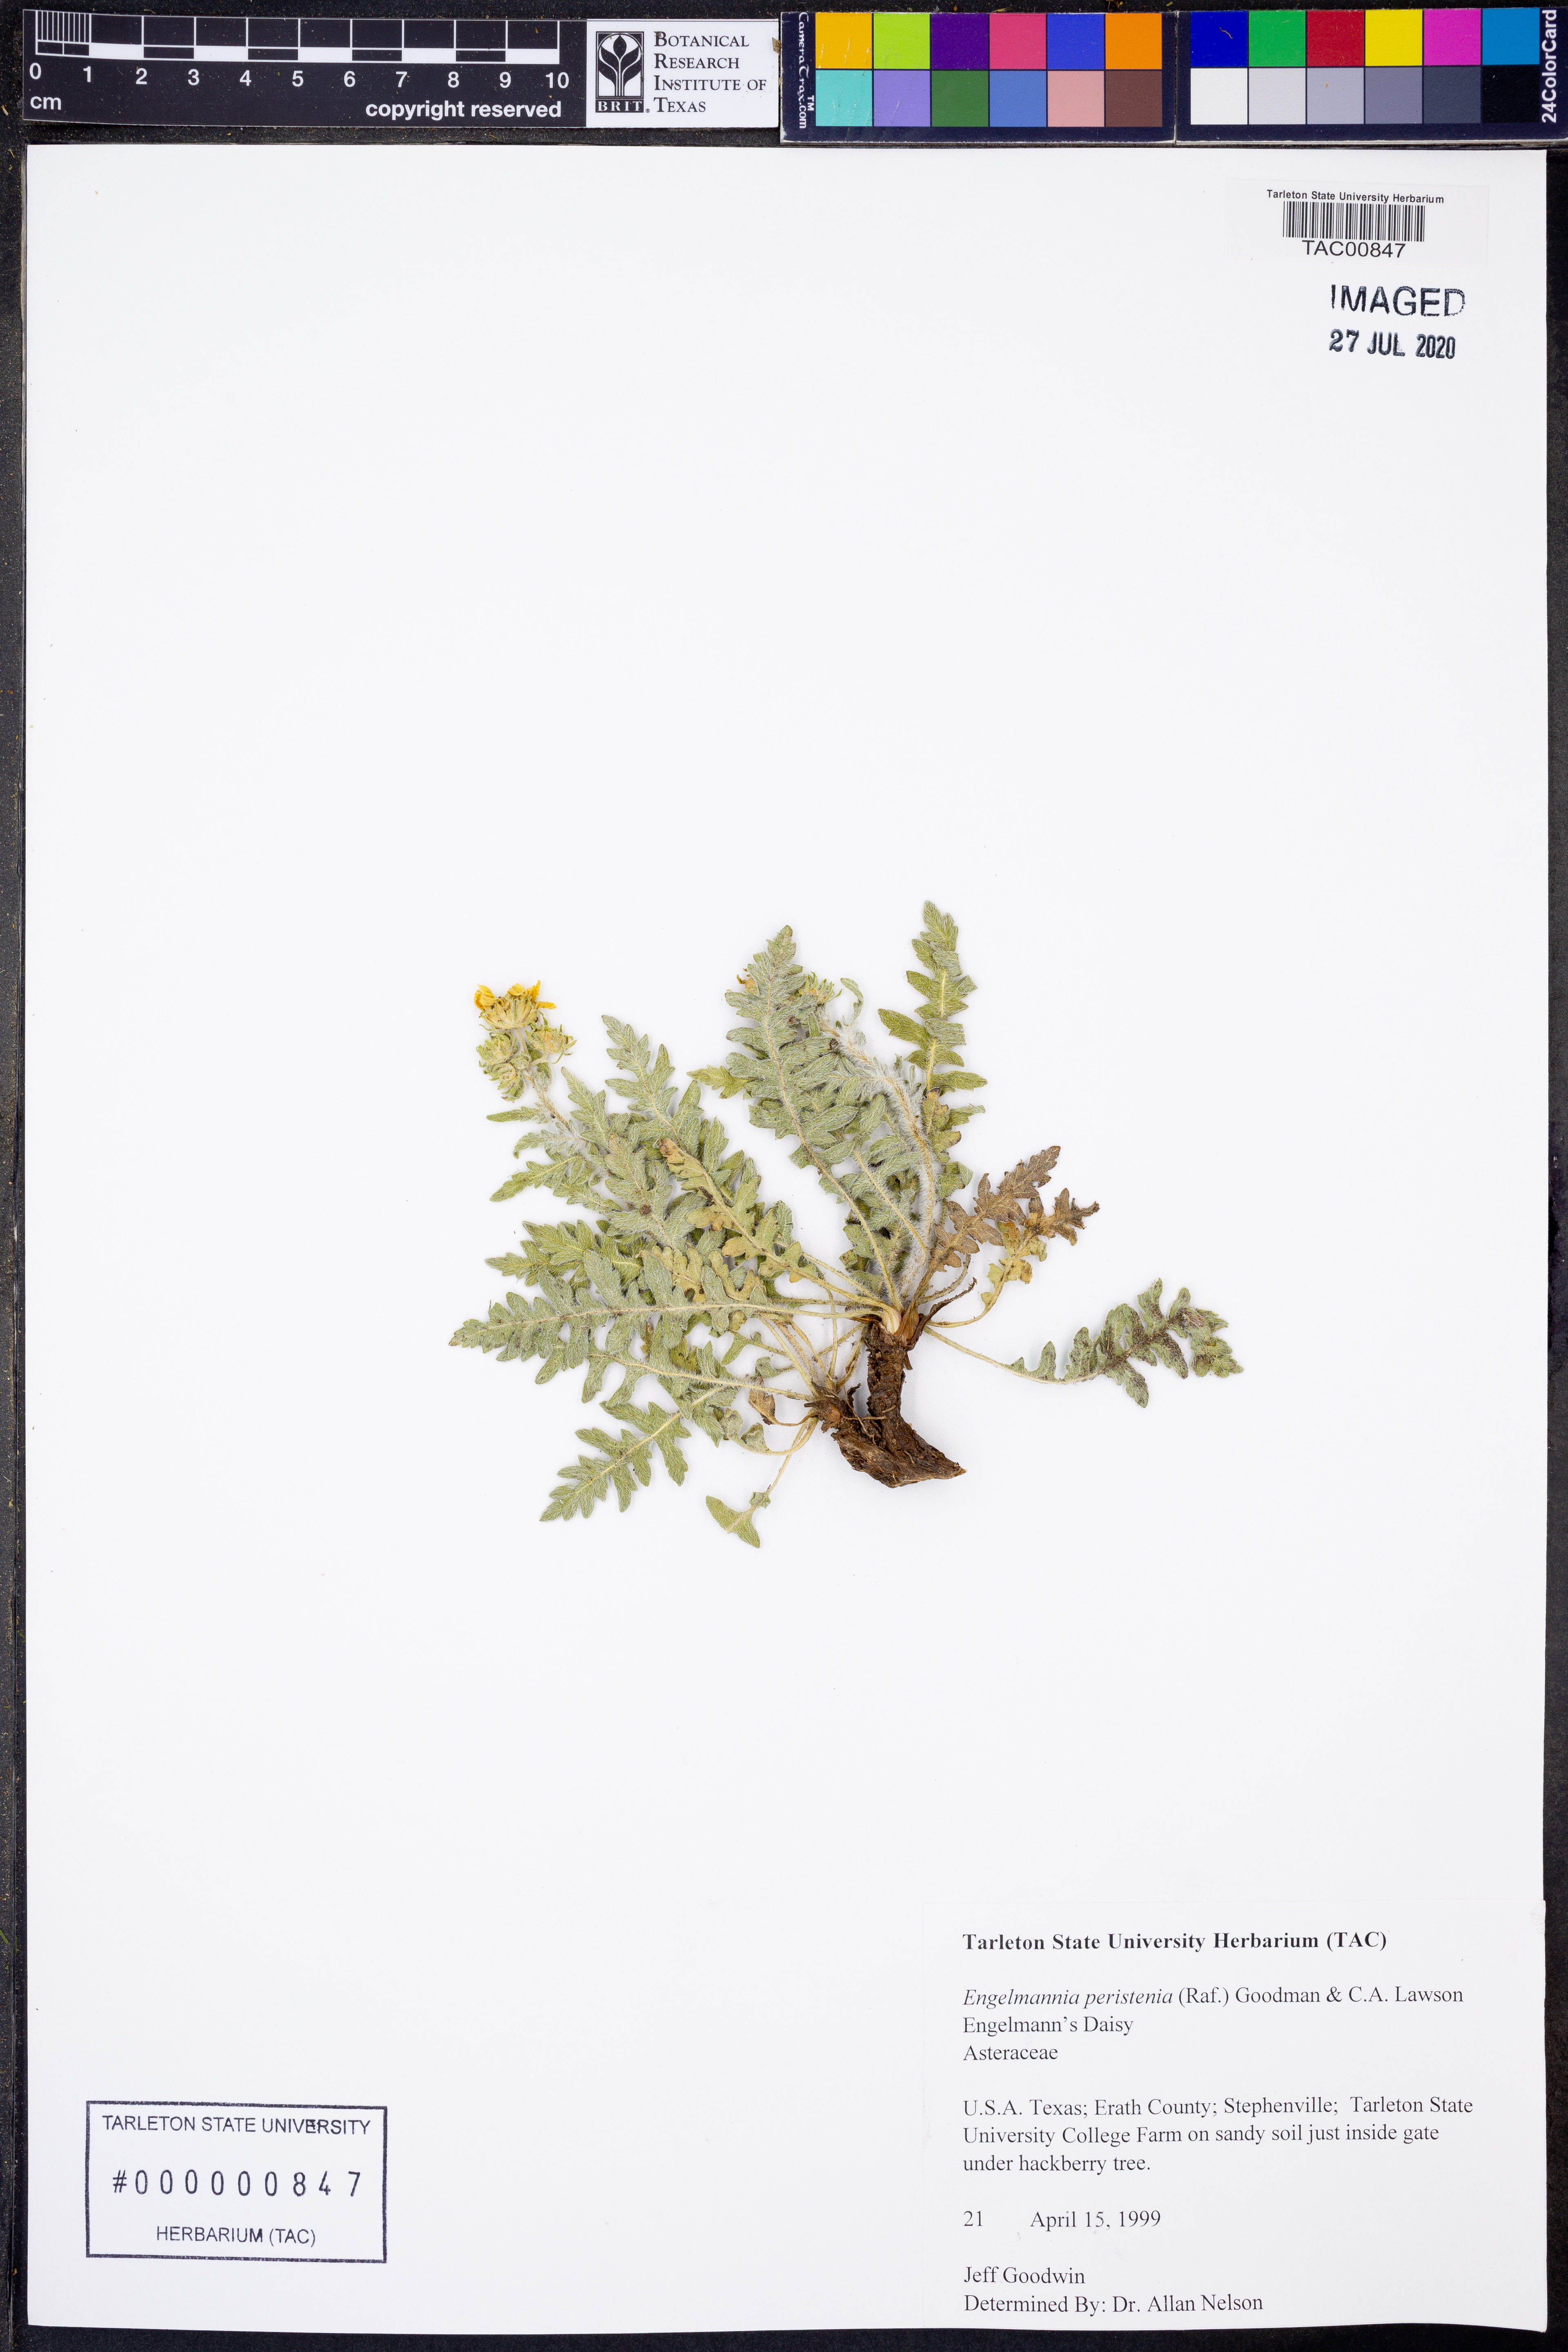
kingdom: Plantae
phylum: Tracheophyta
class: Magnoliopsida
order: Asterales
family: Asteraceae
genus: Engelmannia
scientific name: Engelmannia peristenia
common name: Engelmann's daisy
